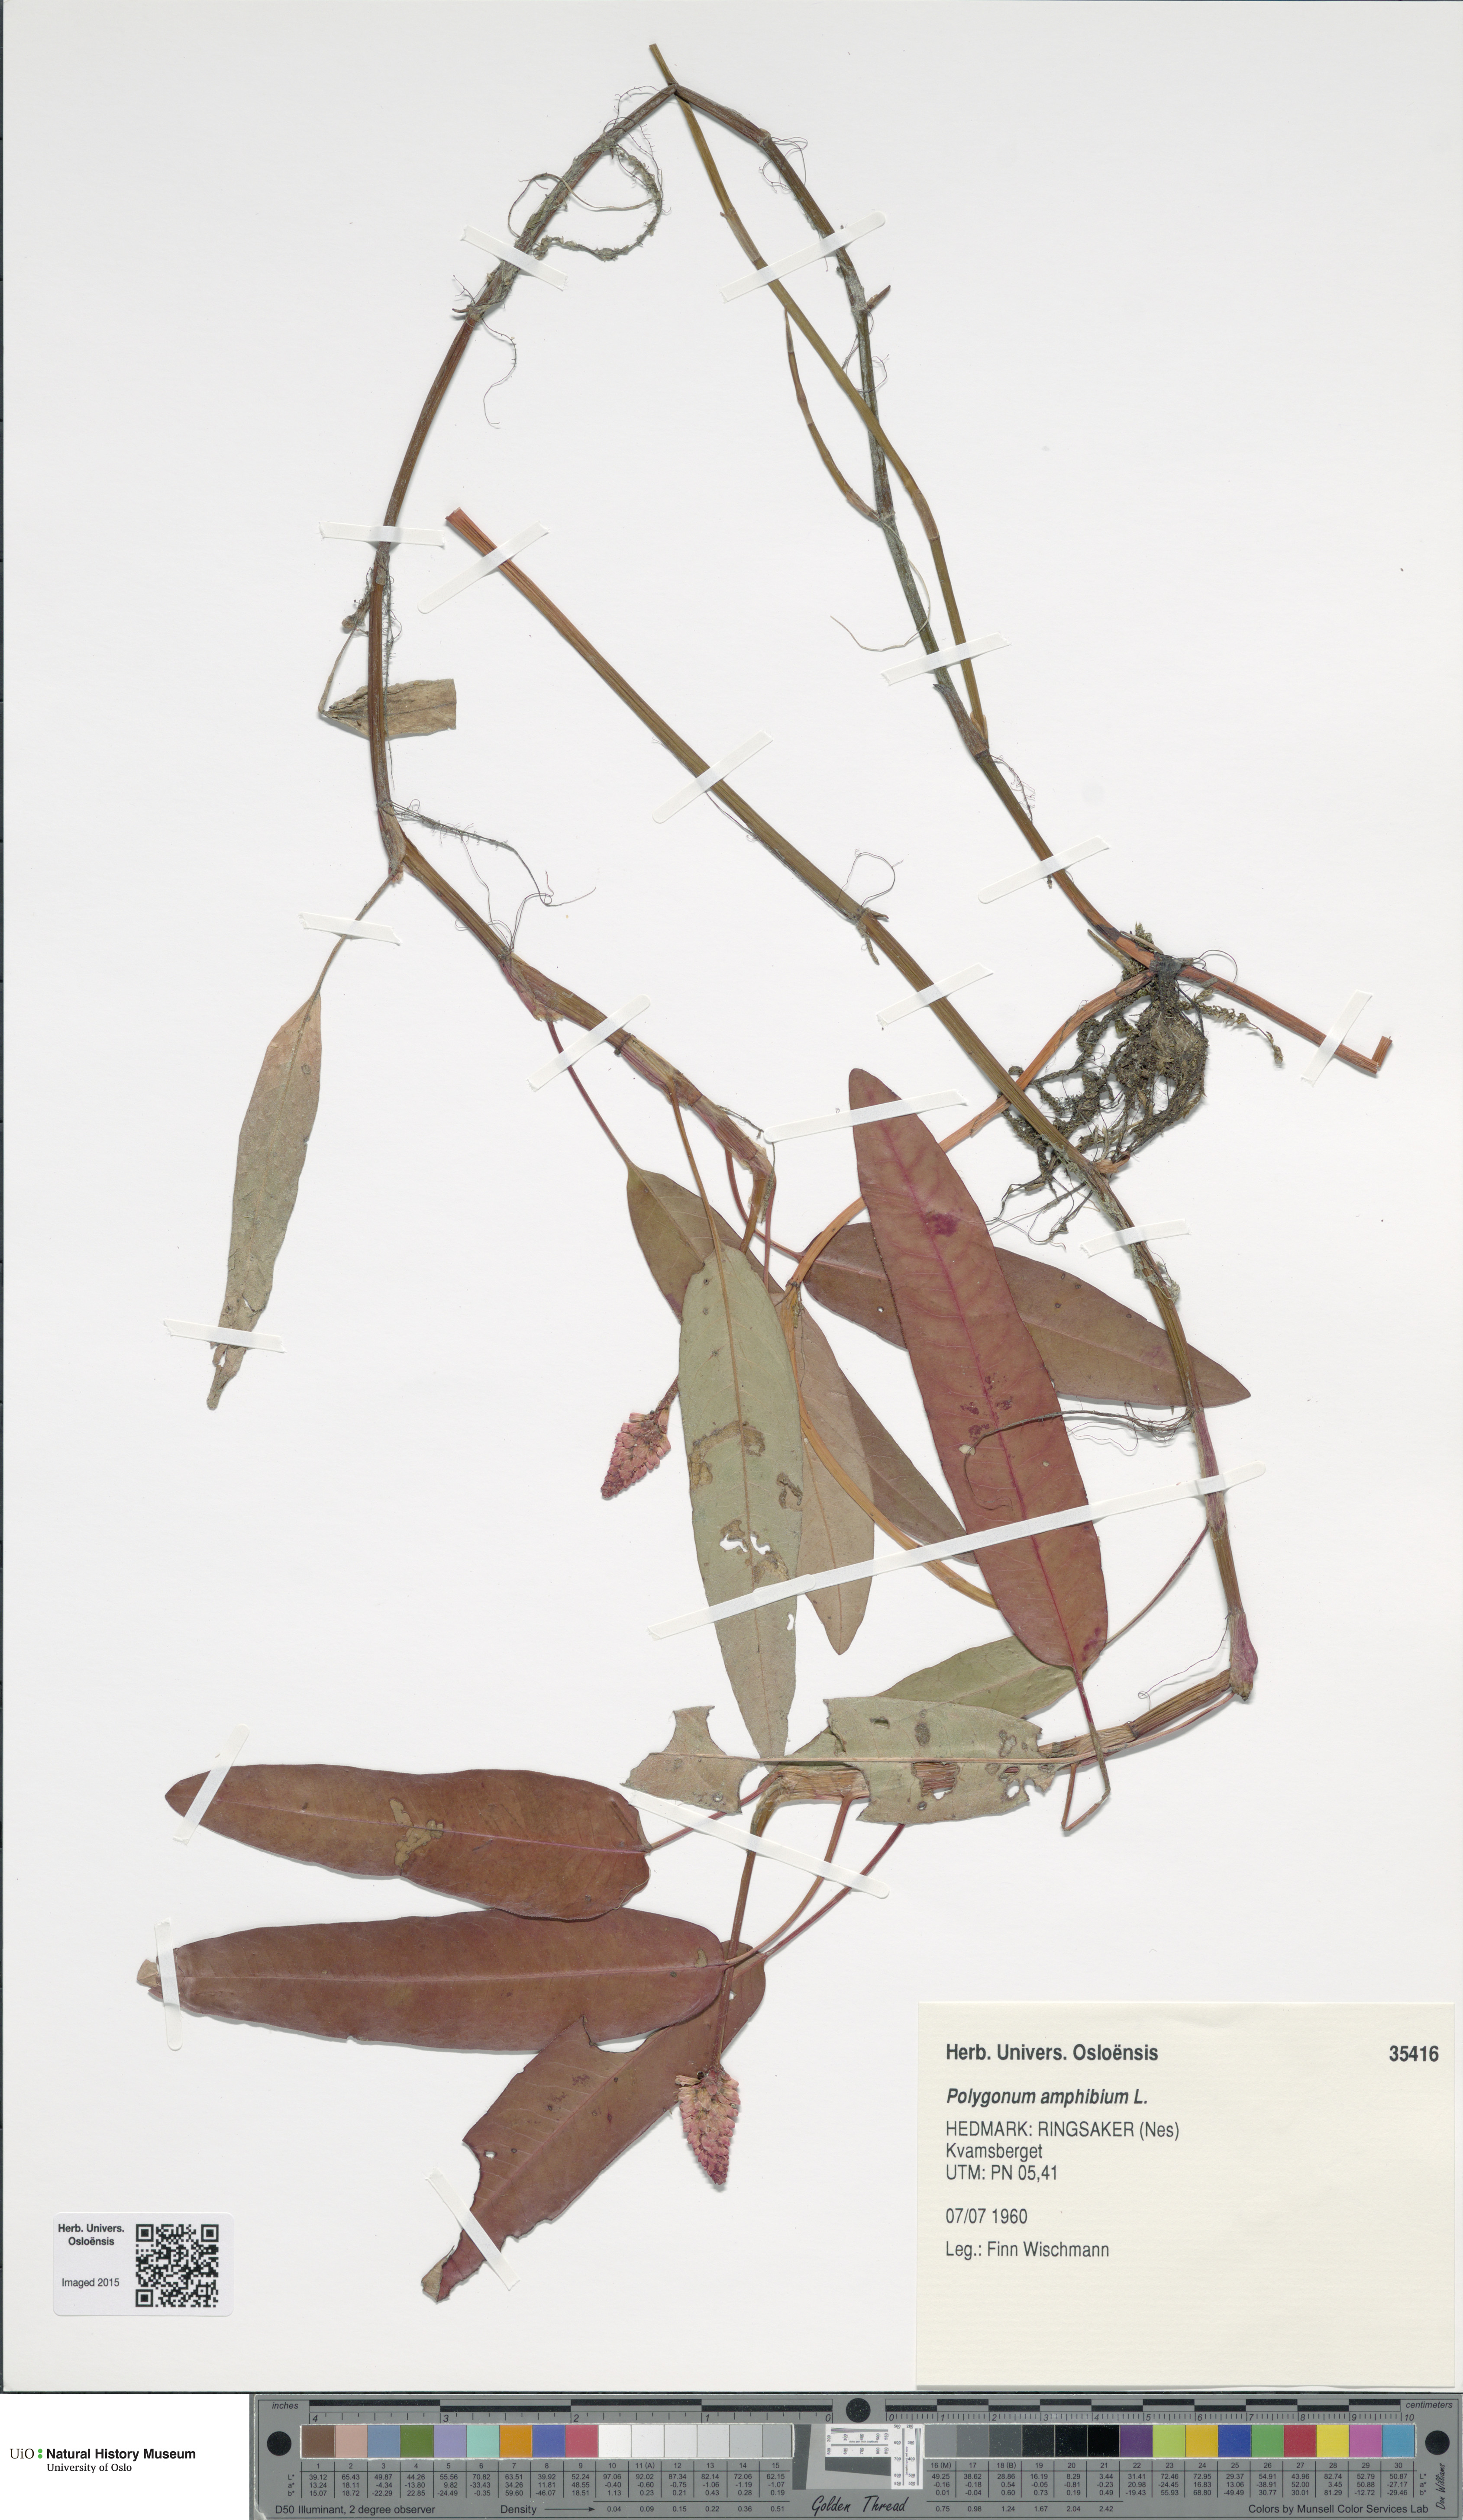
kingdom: Plantae
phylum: Tracheophyta
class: Magnoliopsida
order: Caryophyllales
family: Polygonaceae
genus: Persicaria
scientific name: Persicaria amphibia
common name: Amphibious bistort
